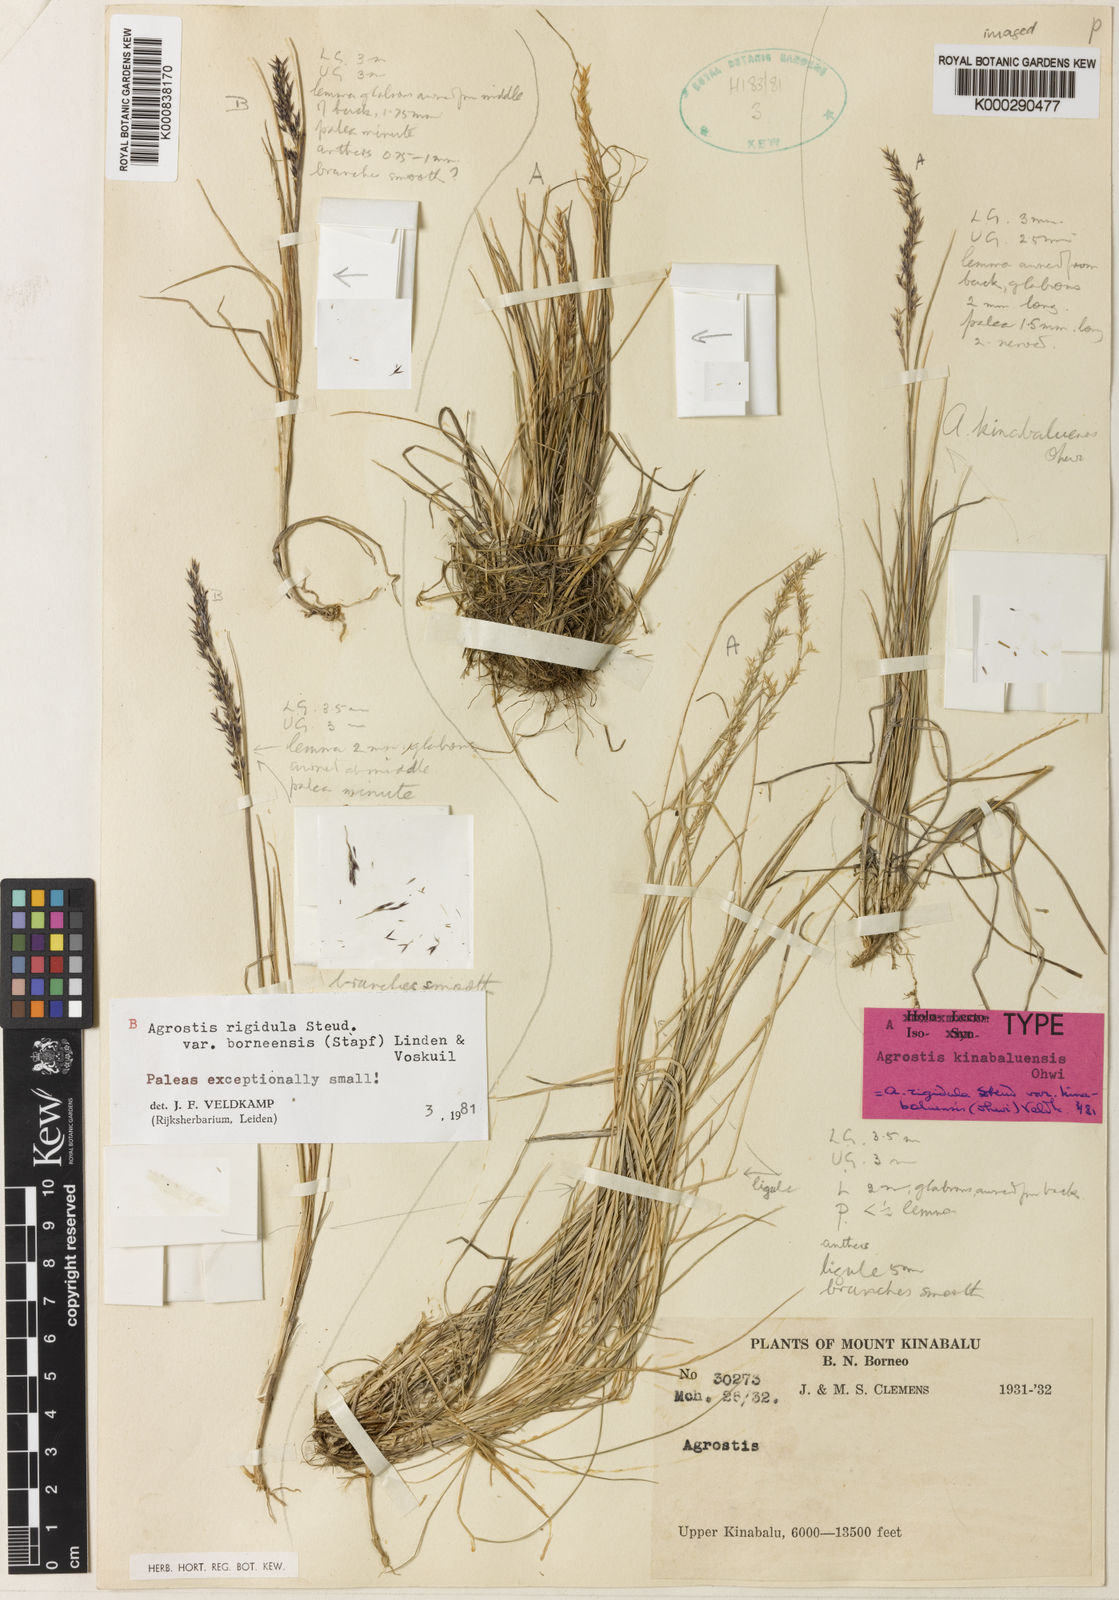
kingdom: Plantae
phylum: Tracheophyta
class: Liliopsida
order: Poales
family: Poaceae
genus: Agrostis
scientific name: Agrostis infirma
